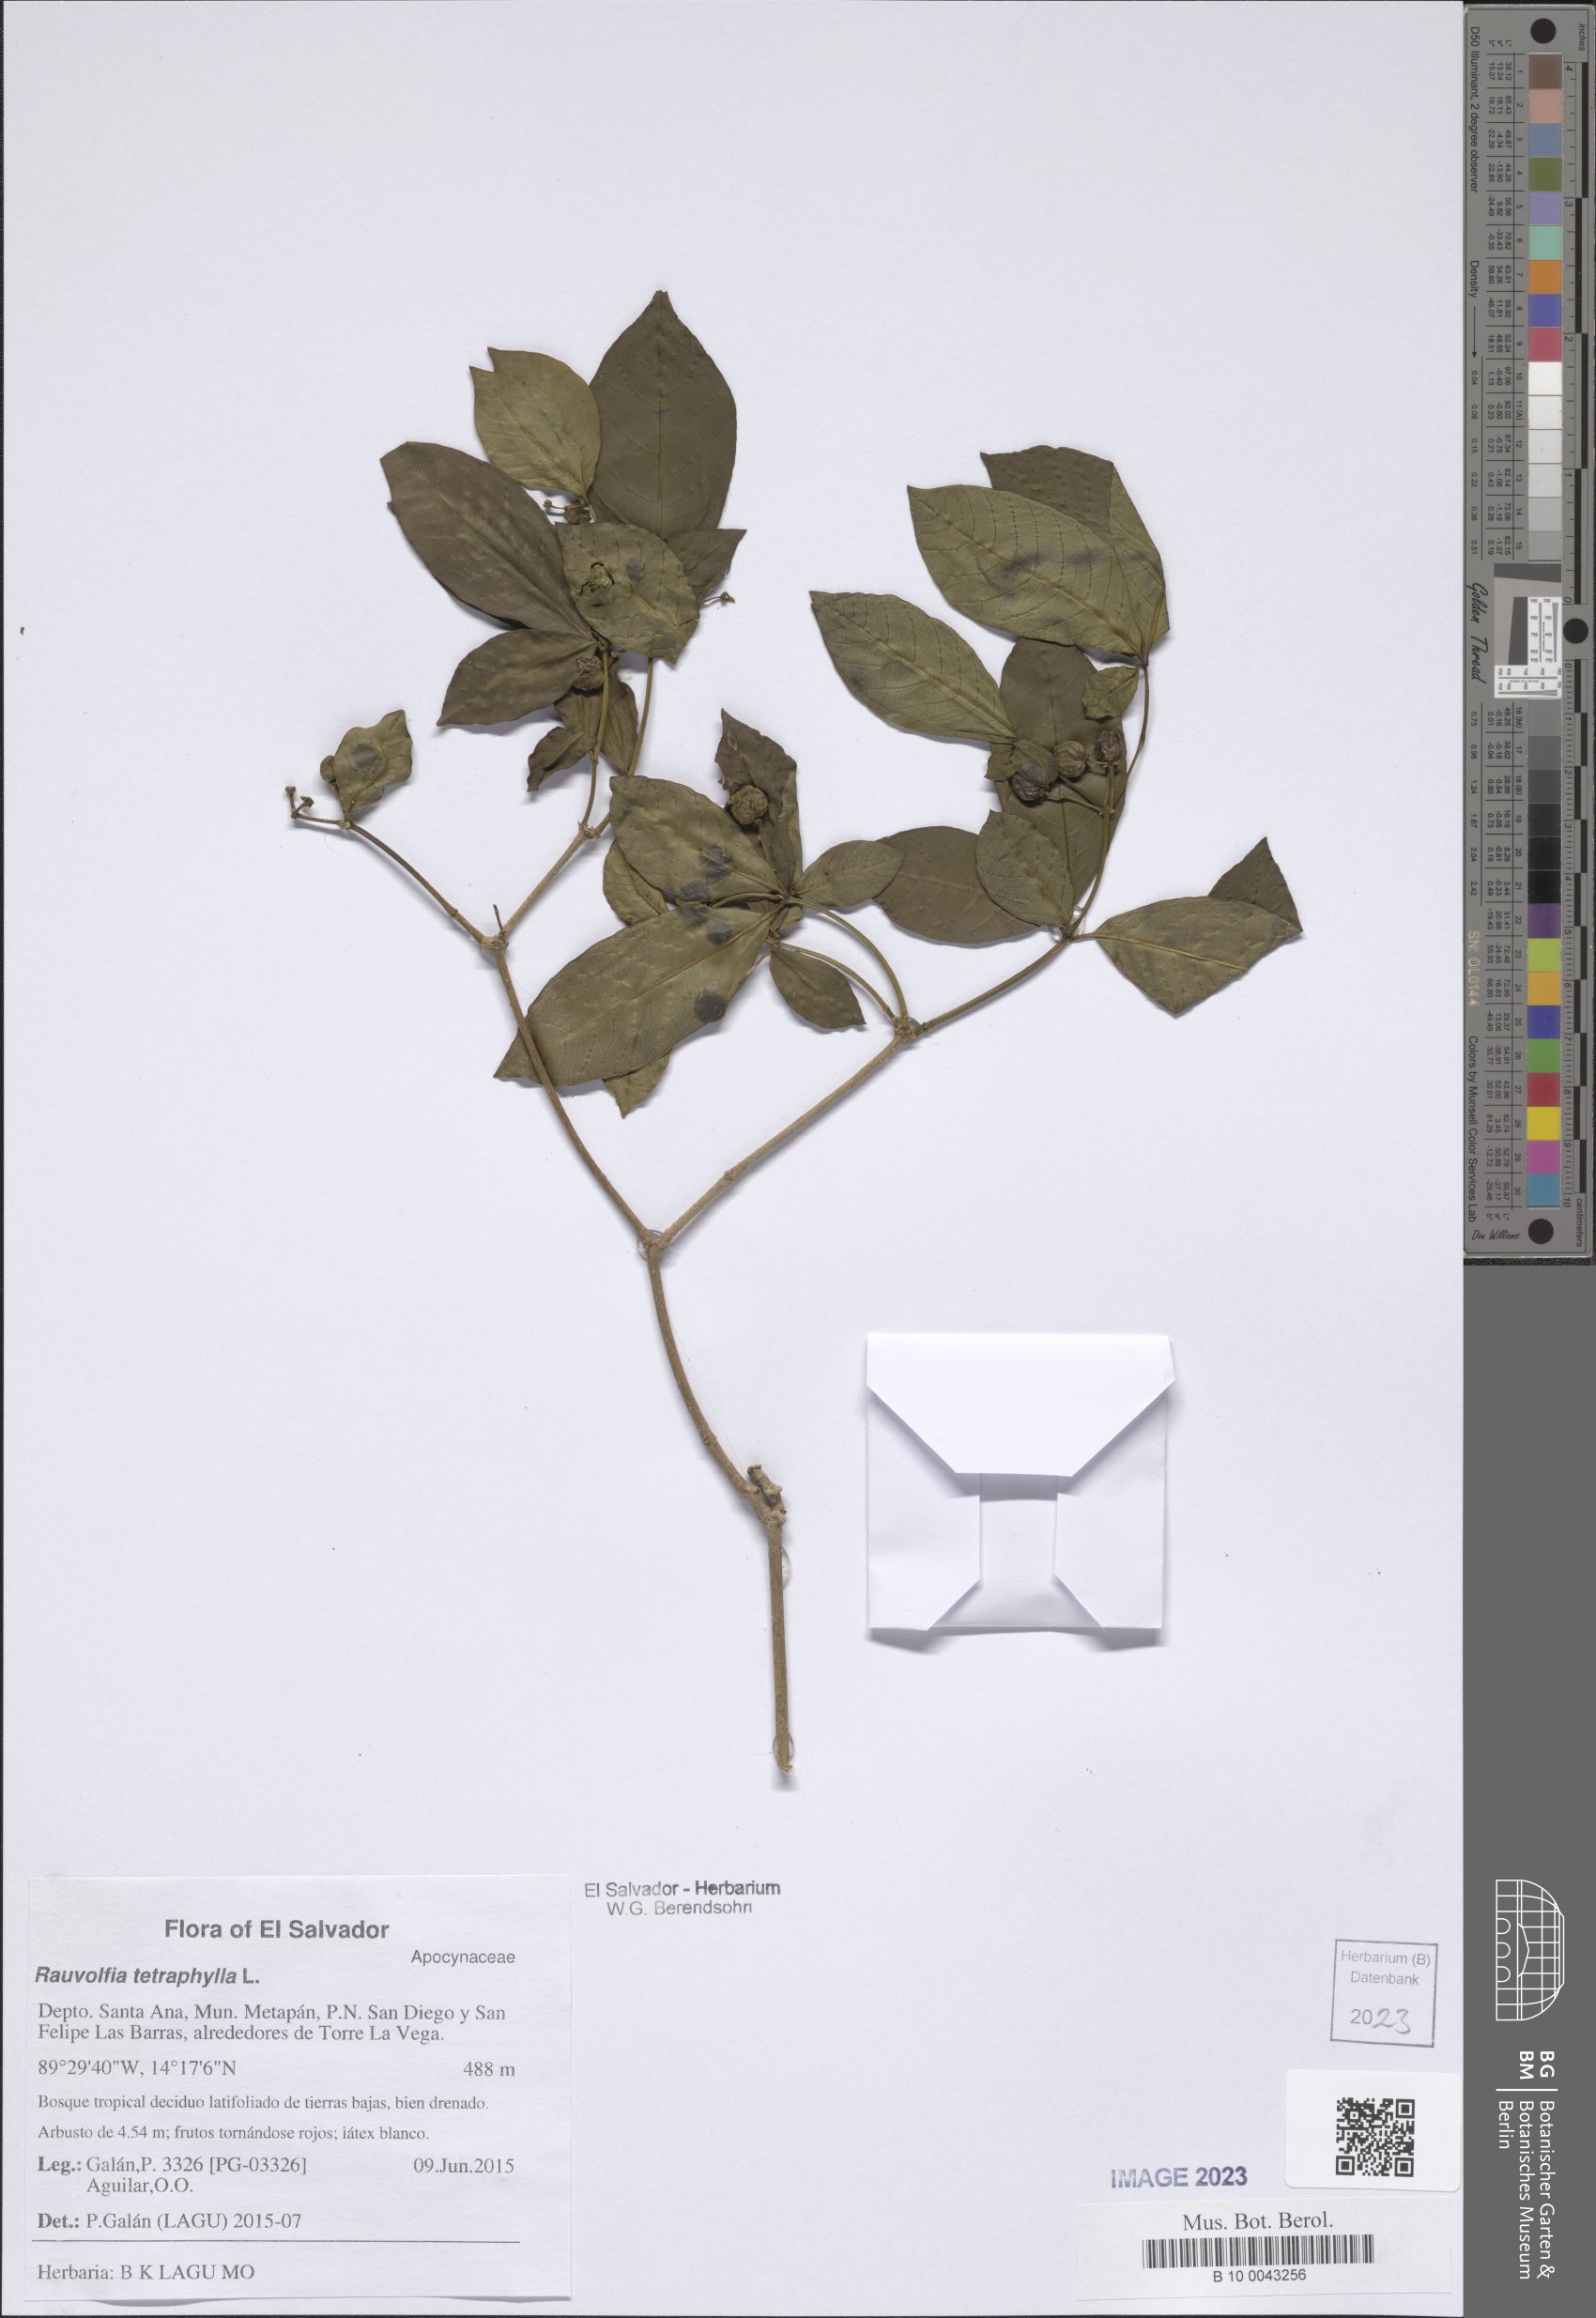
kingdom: Plantae
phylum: Tracheophyta
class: Magnoliopsida
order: Gentianales
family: Apocynaceae
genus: Rauvolfia
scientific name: Rauvolfia tetraphylla
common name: Four-leaf devil-pepper
